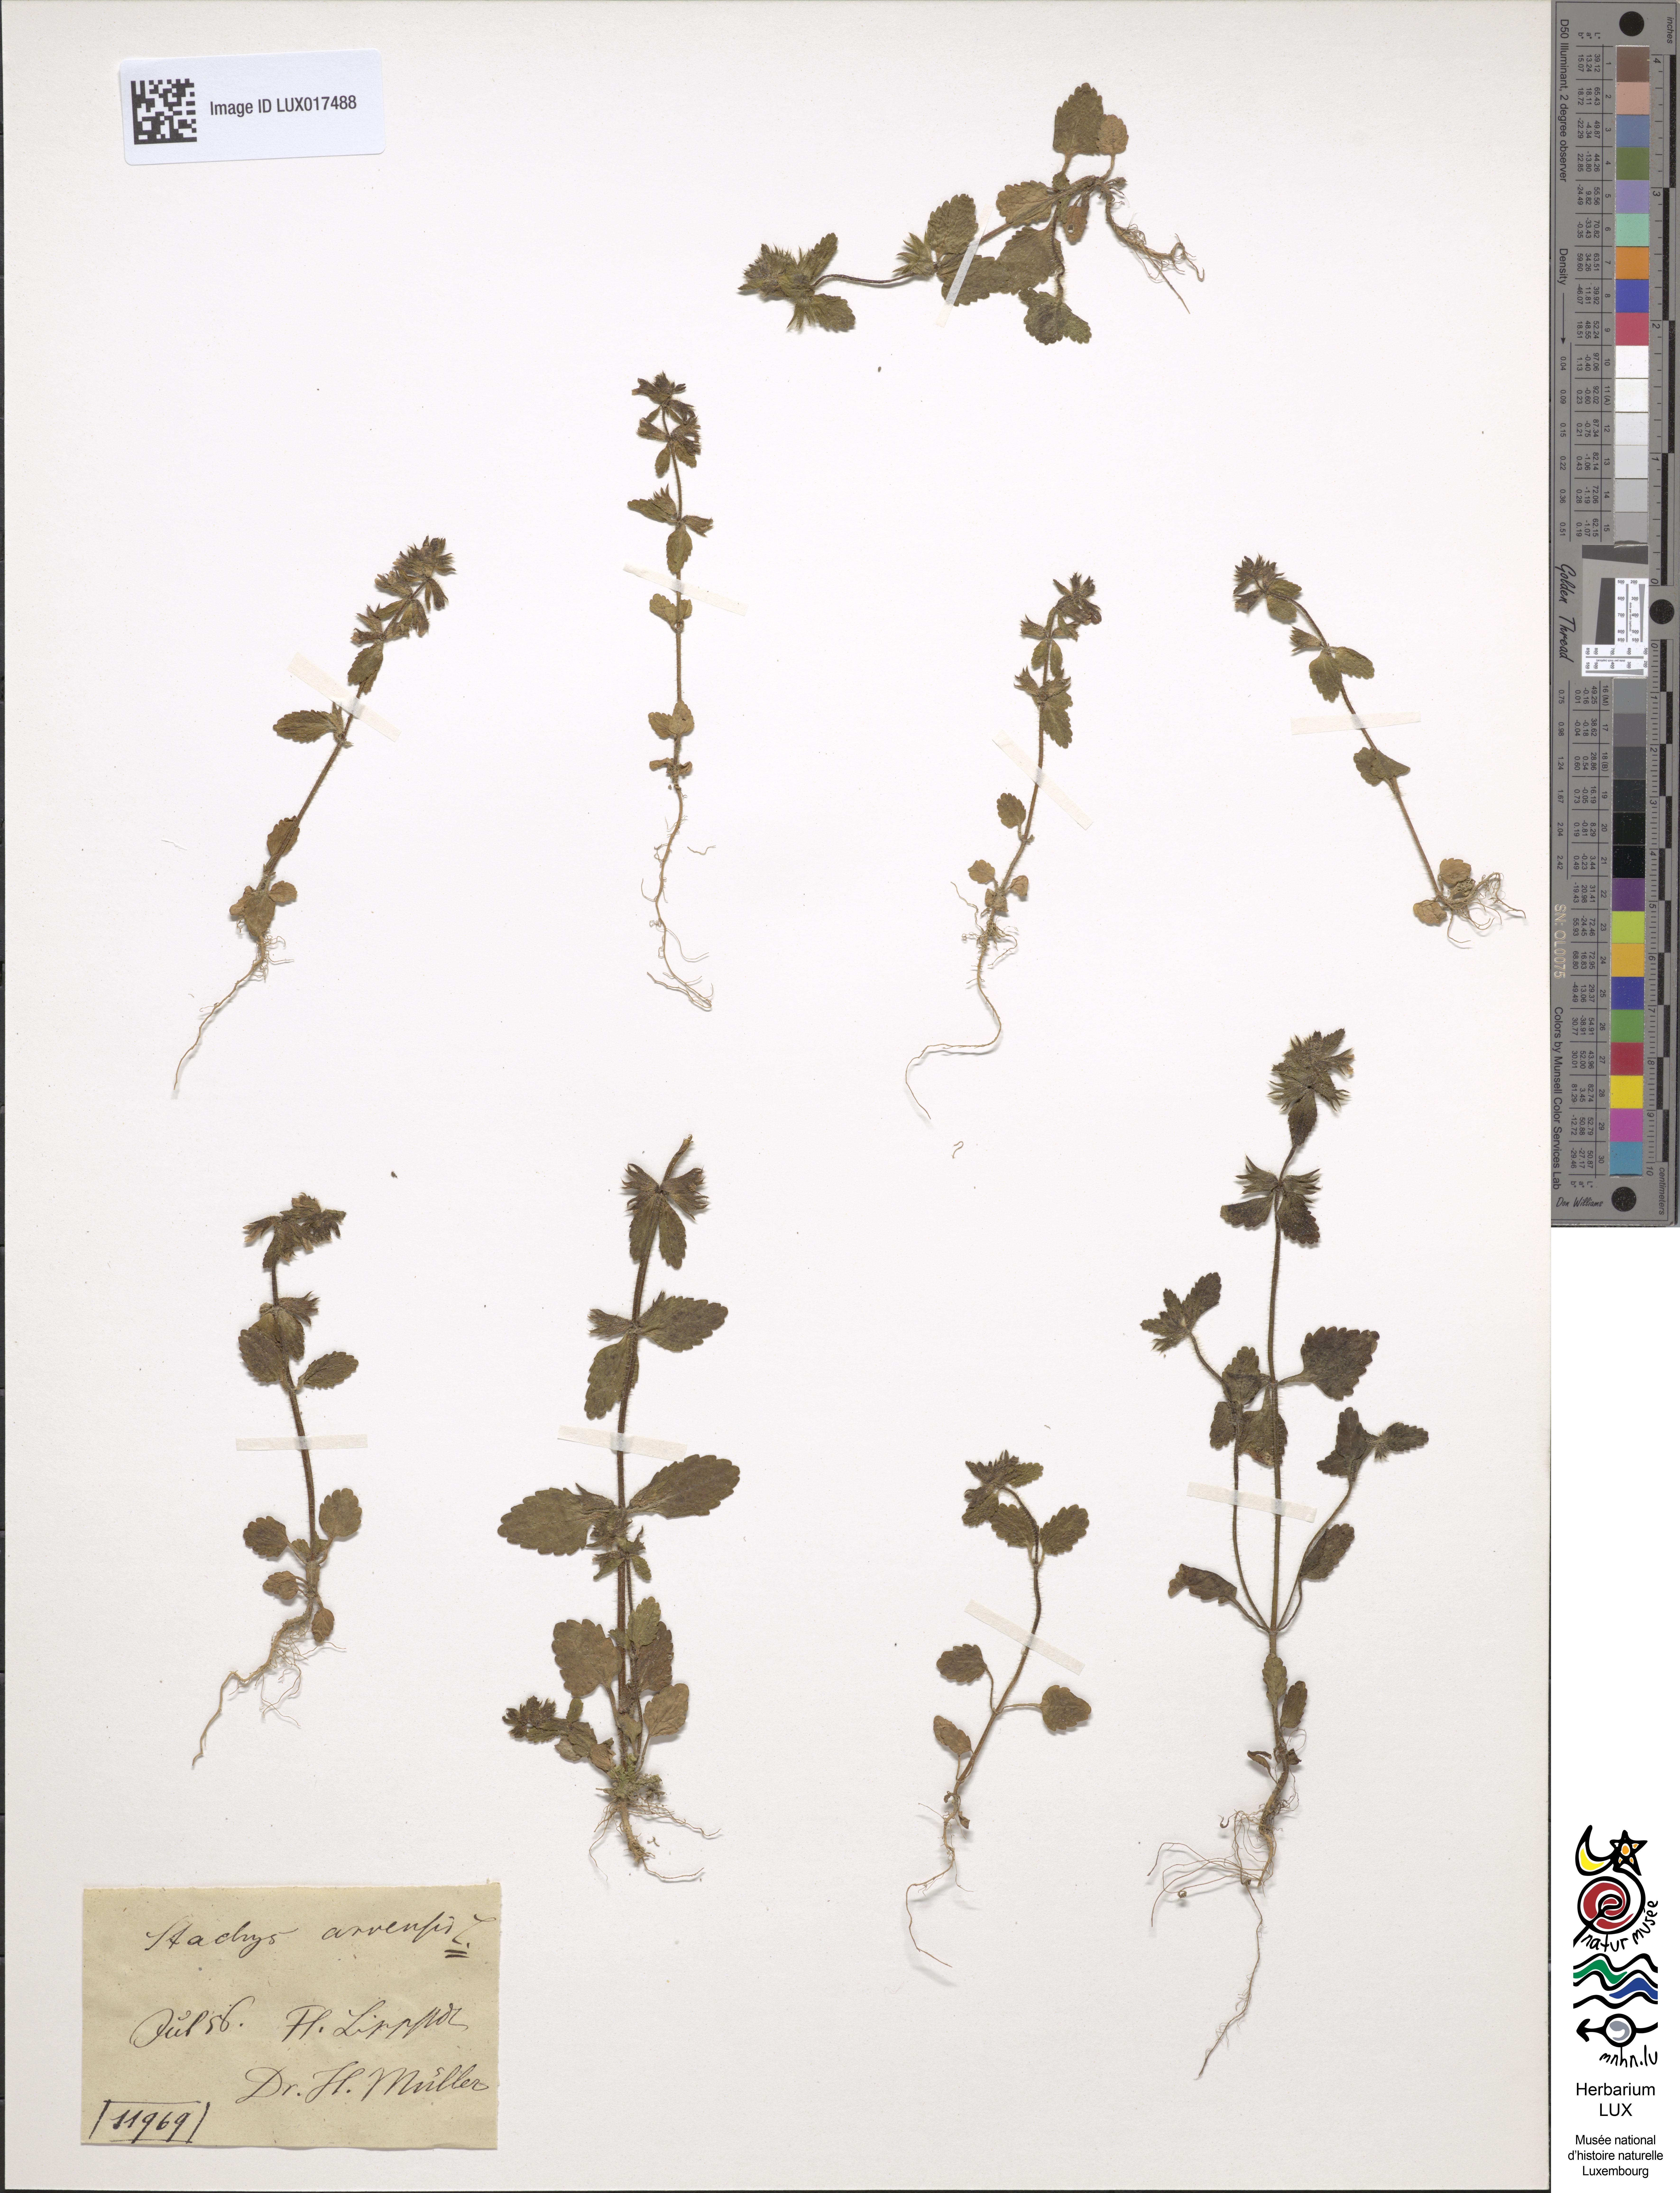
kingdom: Plantae
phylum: Tracheophyta
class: Magnoliopsida
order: Lamiales
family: Lamiaceae
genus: Stachys
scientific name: Stachys arvensis
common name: Field woundwort
